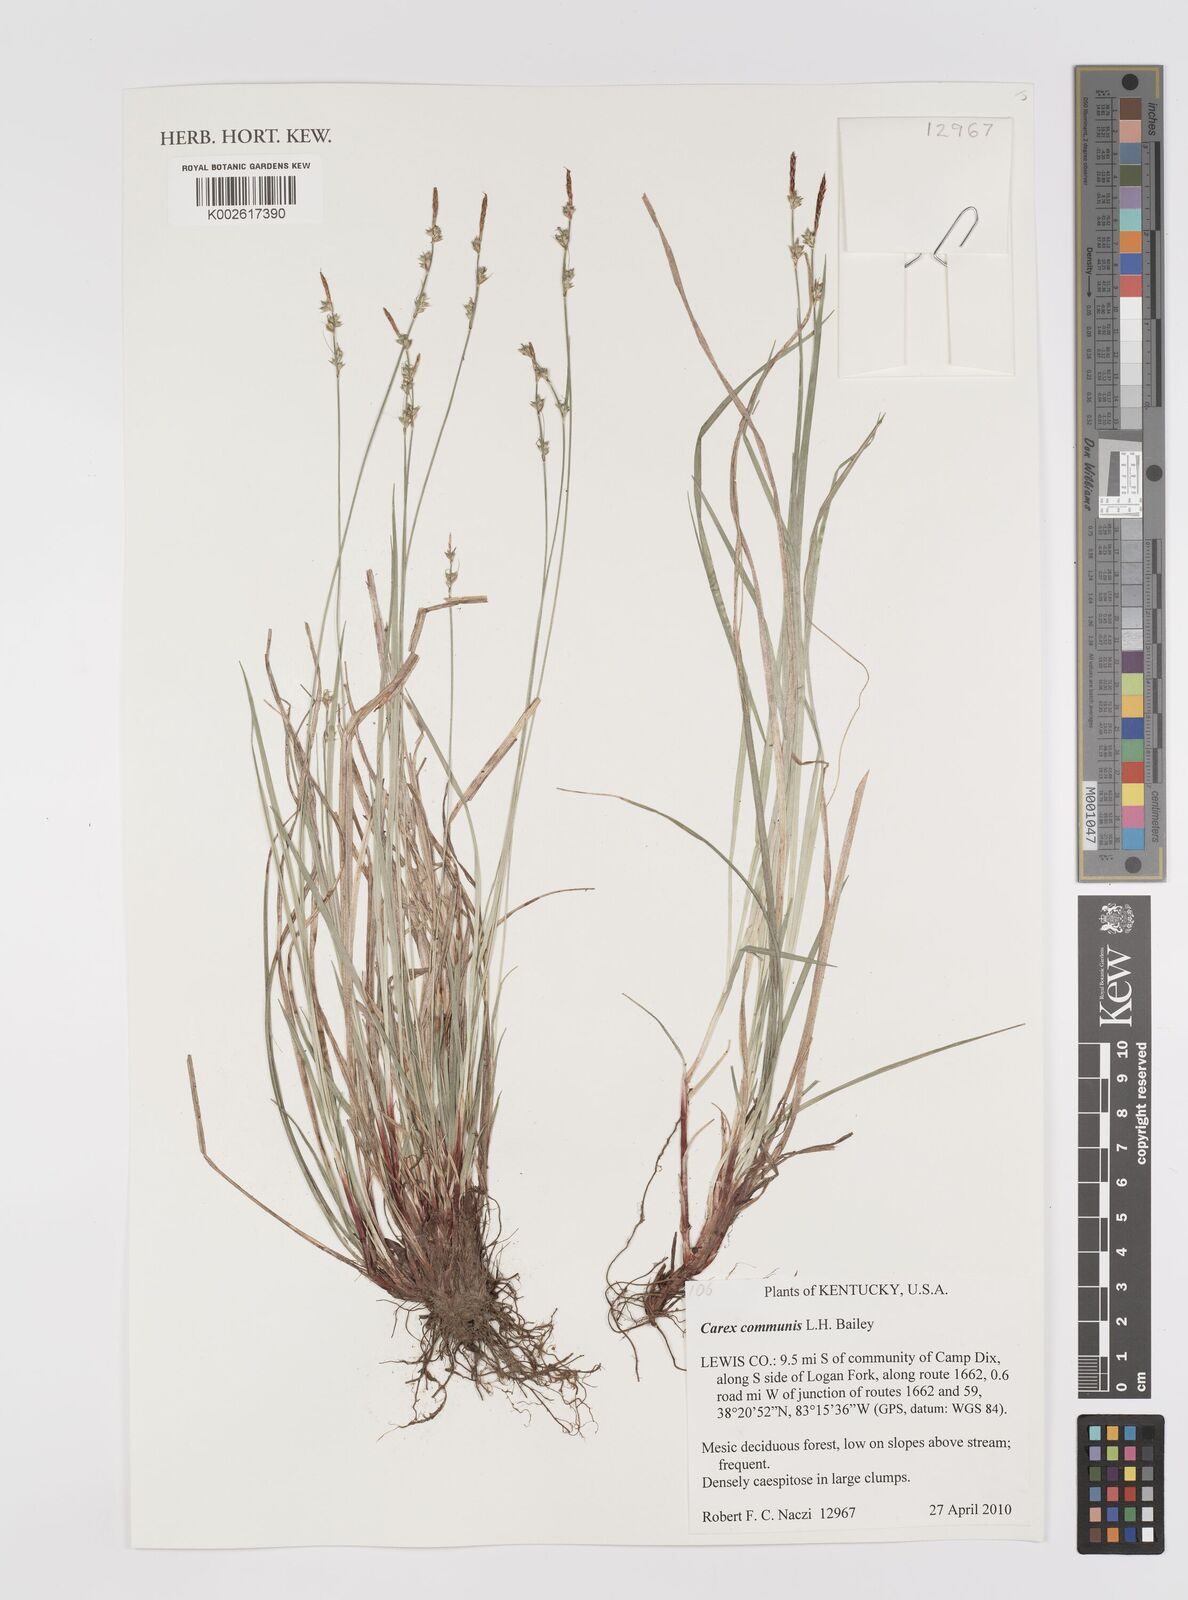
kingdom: Plantae
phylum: Tracheophyta
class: Liliopsida
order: Poales
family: Cyperaceae
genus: Carex
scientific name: Carex communis
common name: Colonial oak sedge
